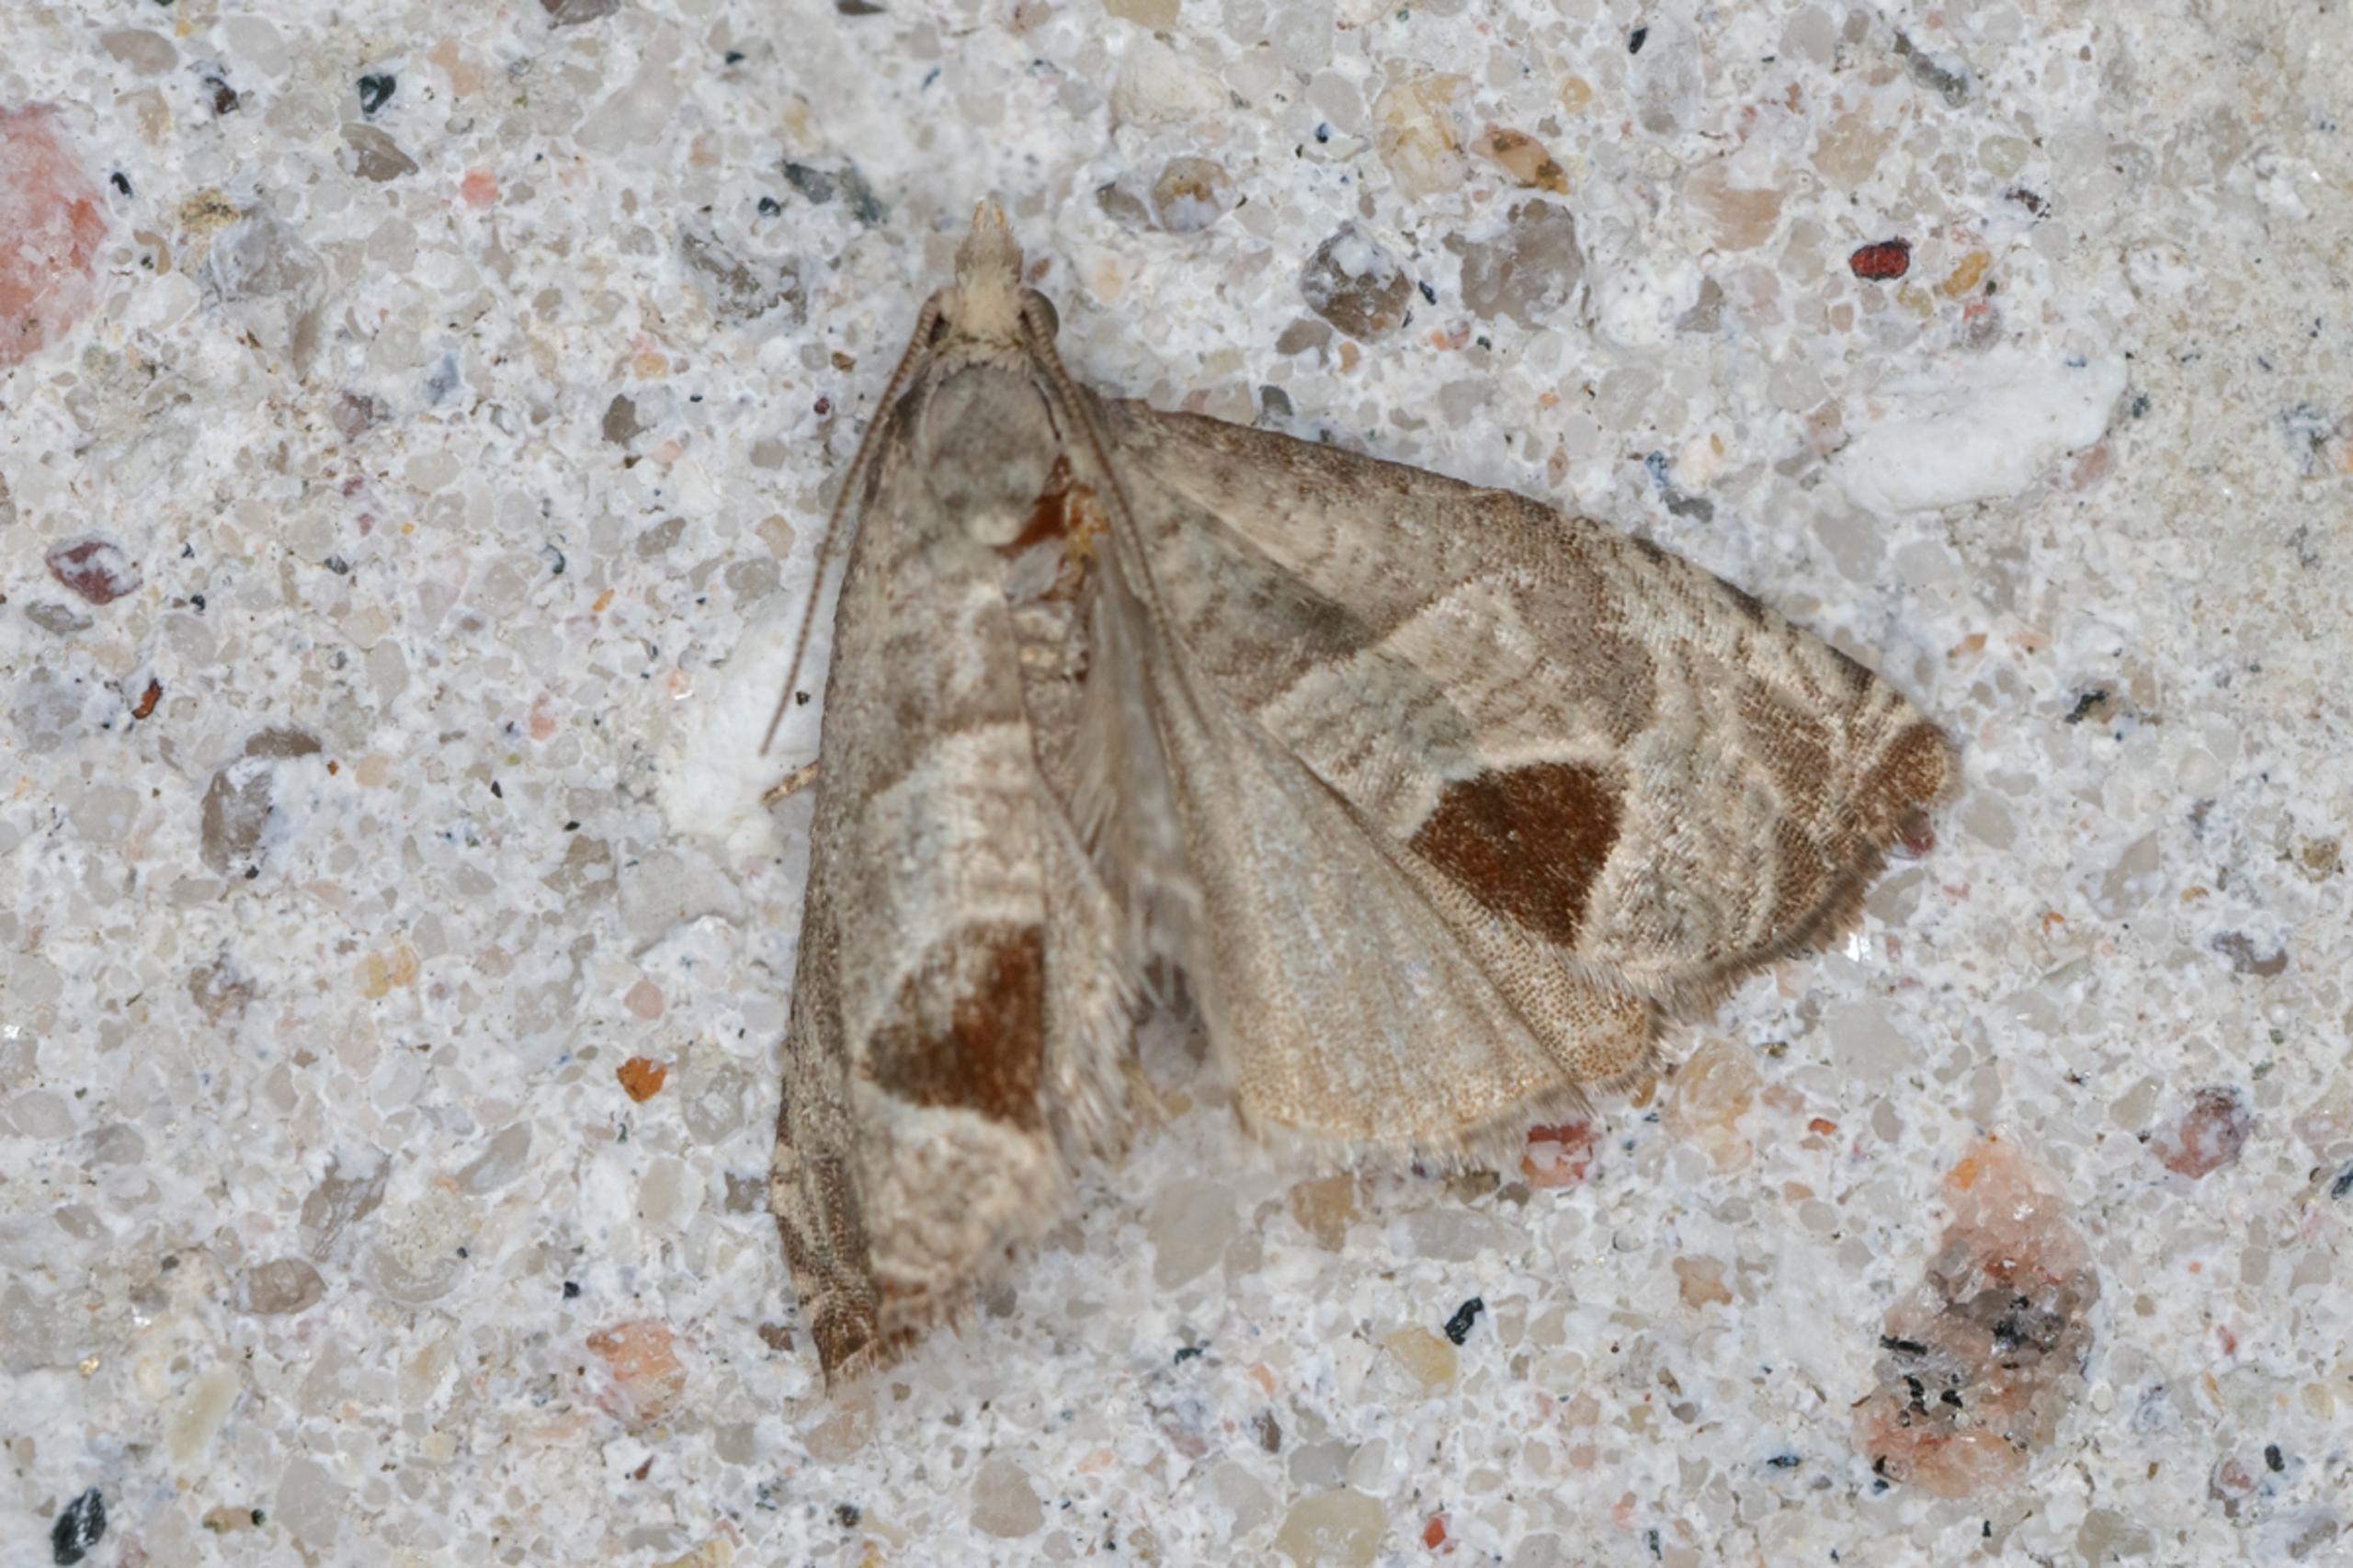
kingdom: Animalia
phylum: Arthropoda
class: Insecta
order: Lepidoptera
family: Tortricidae
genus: Notocelia
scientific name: Notocelia uddmanniana
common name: Brombærvikler
